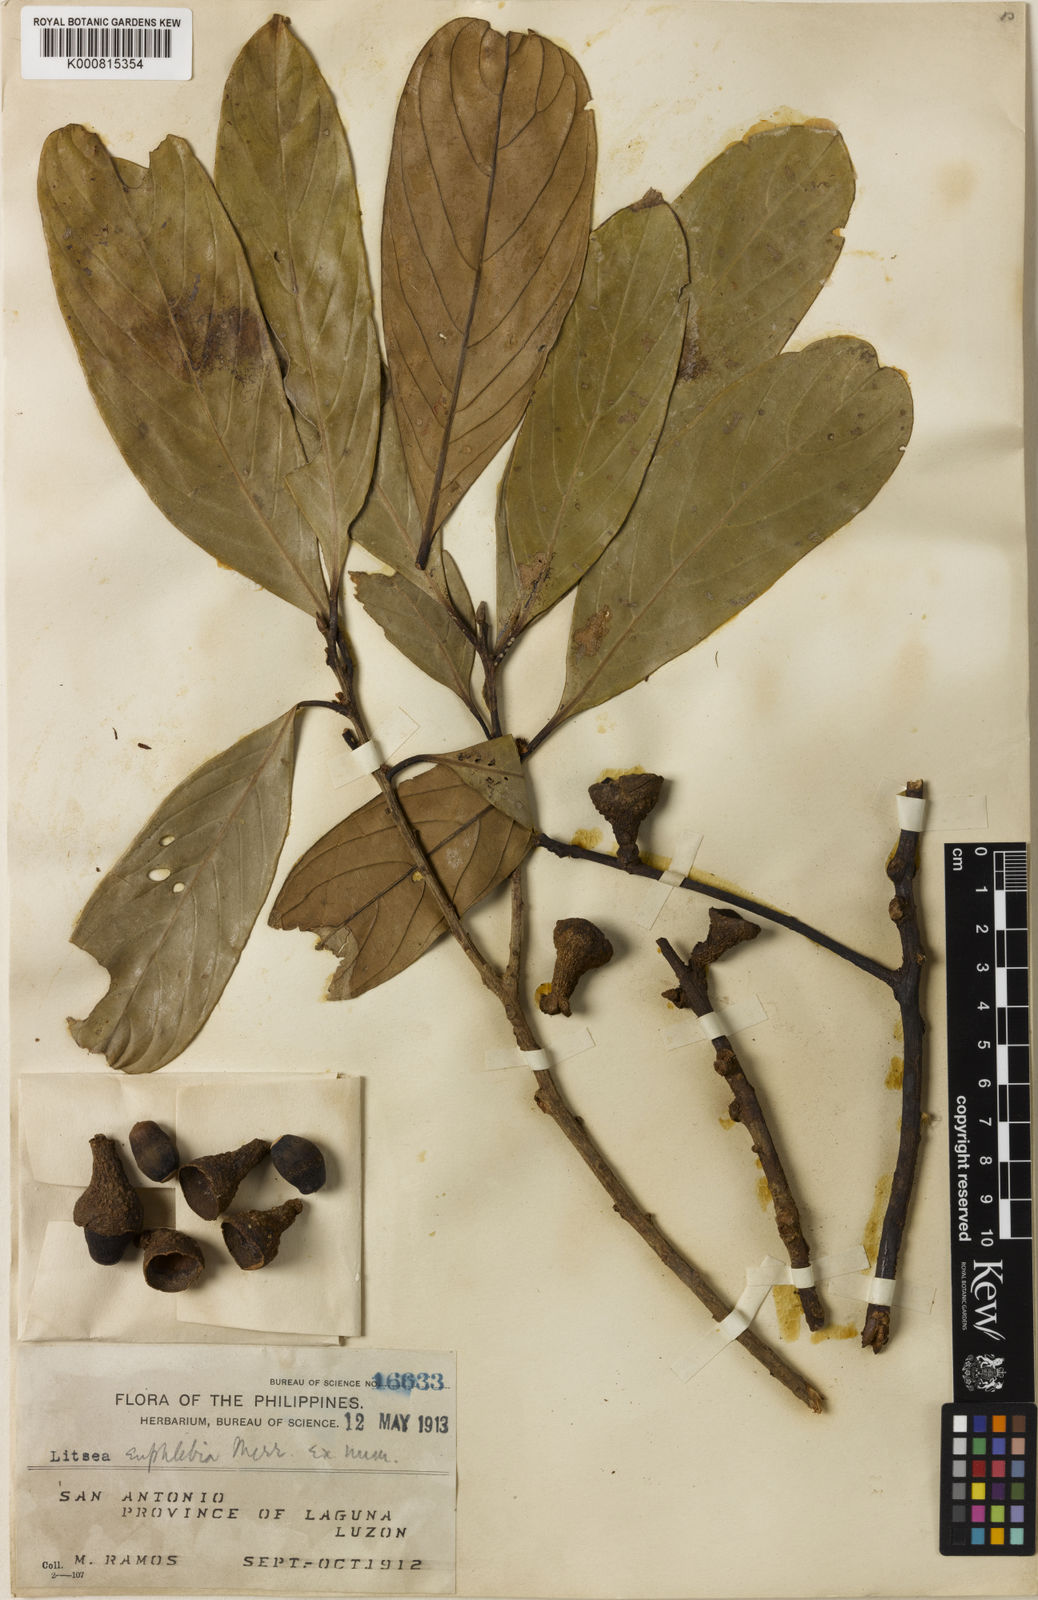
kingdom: Plantae
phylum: Tracheophyta
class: Magnoliopsida
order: Laurales
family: Lauraceae
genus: Litsea
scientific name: Litsea quercoides
